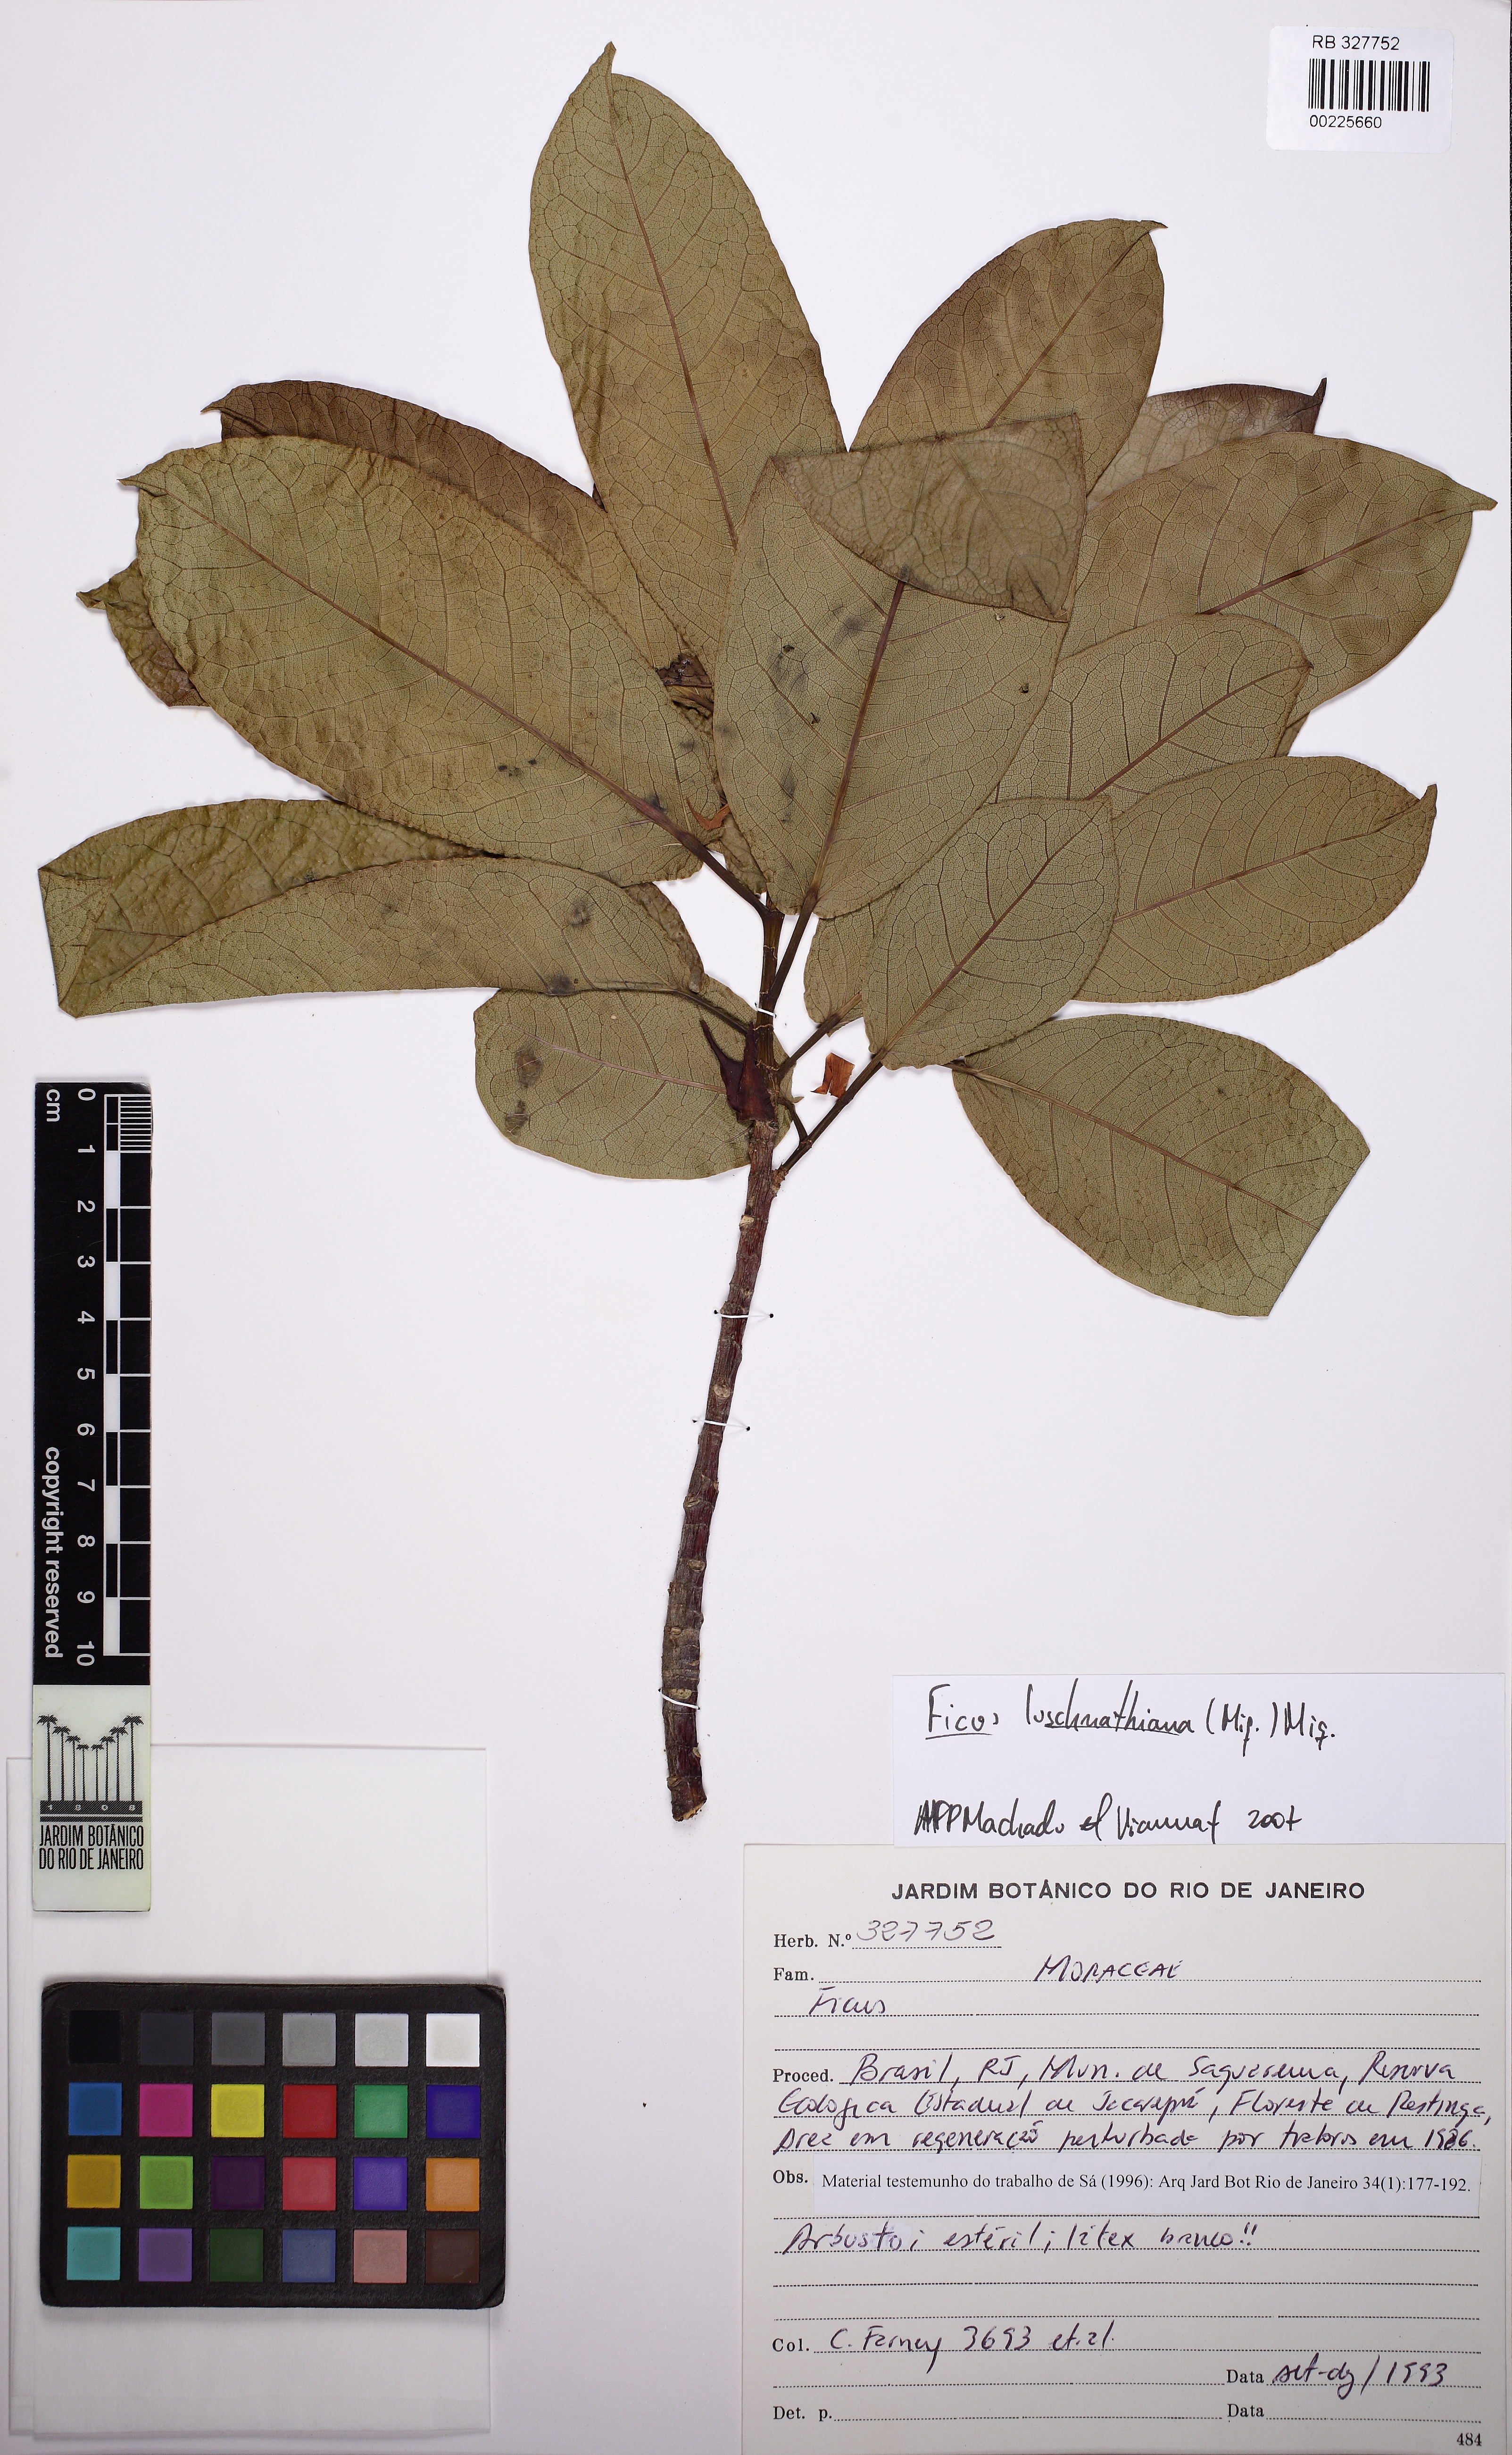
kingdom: Plantae
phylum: Tracheophyta
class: Magnoliopsida
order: Rosales
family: Moraceae
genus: Ficus
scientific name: Ficus luschnathiana
